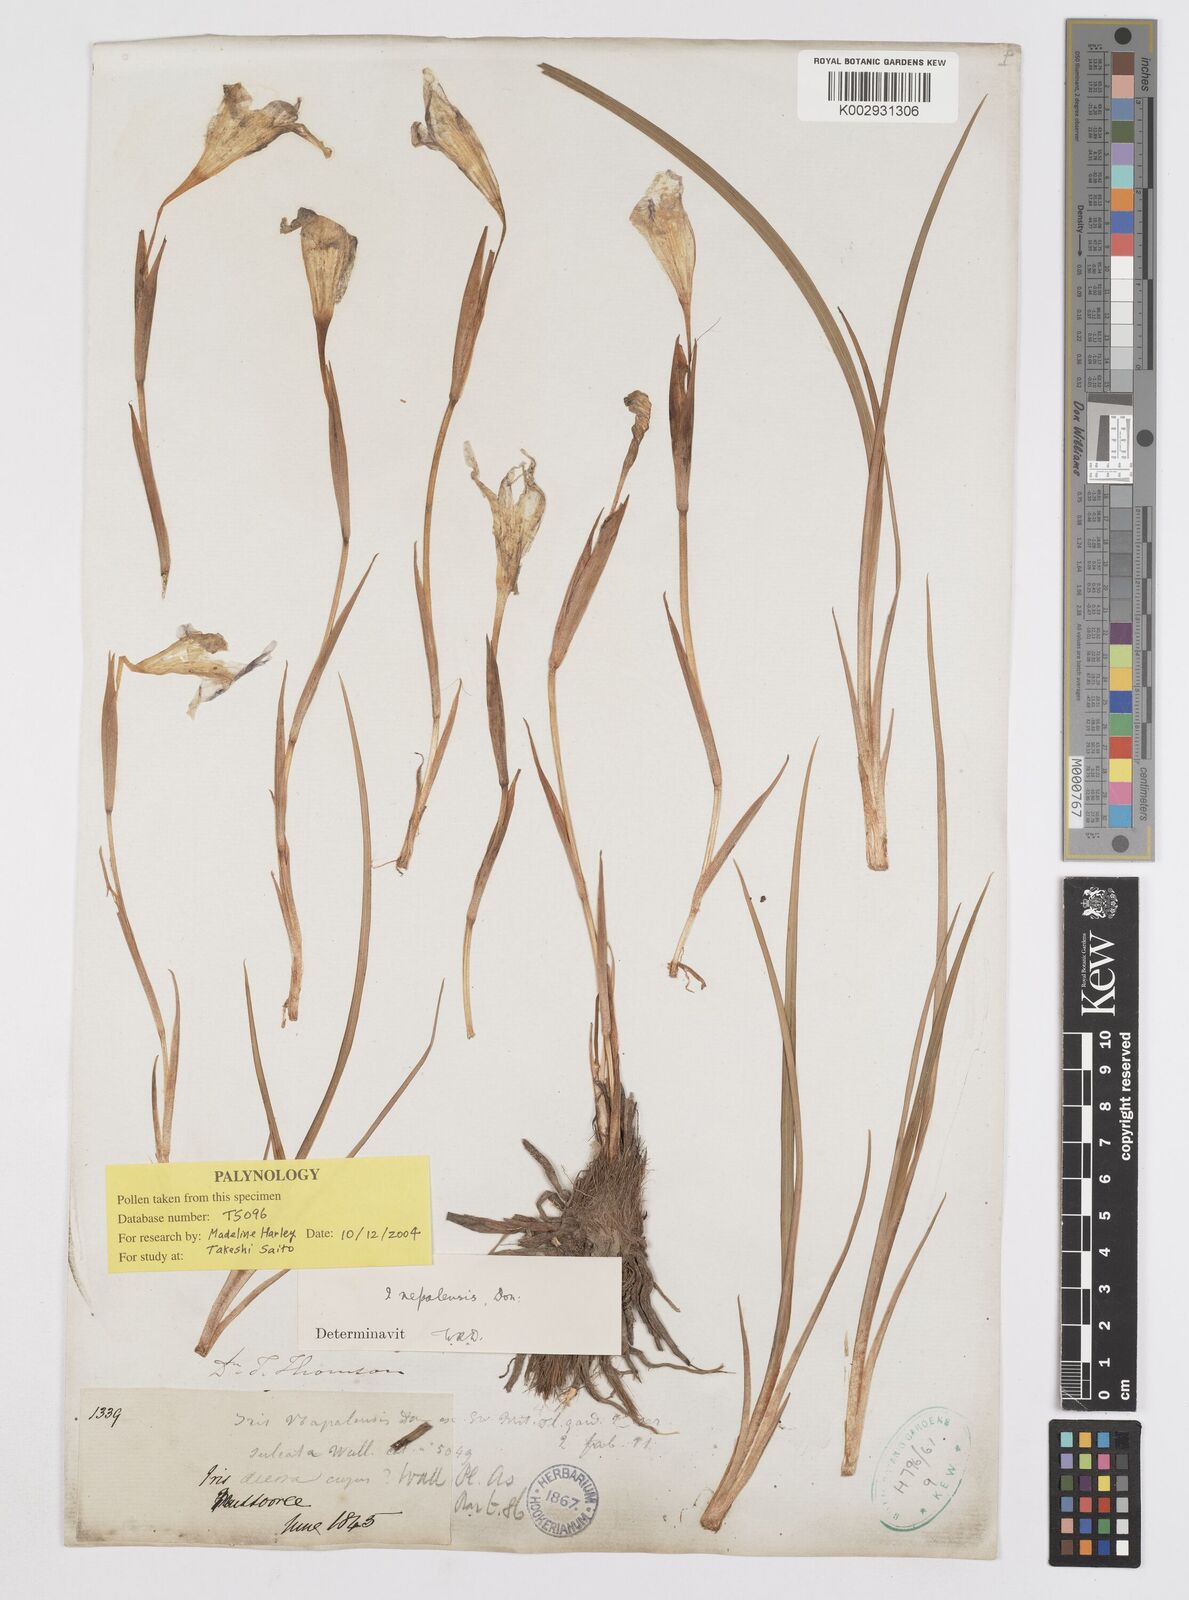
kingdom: Plantae
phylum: Tracheophyta
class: Liliopsida
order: Asparagales
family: Iridaceae
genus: Iris
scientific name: Iris decora
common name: Nepal iris
